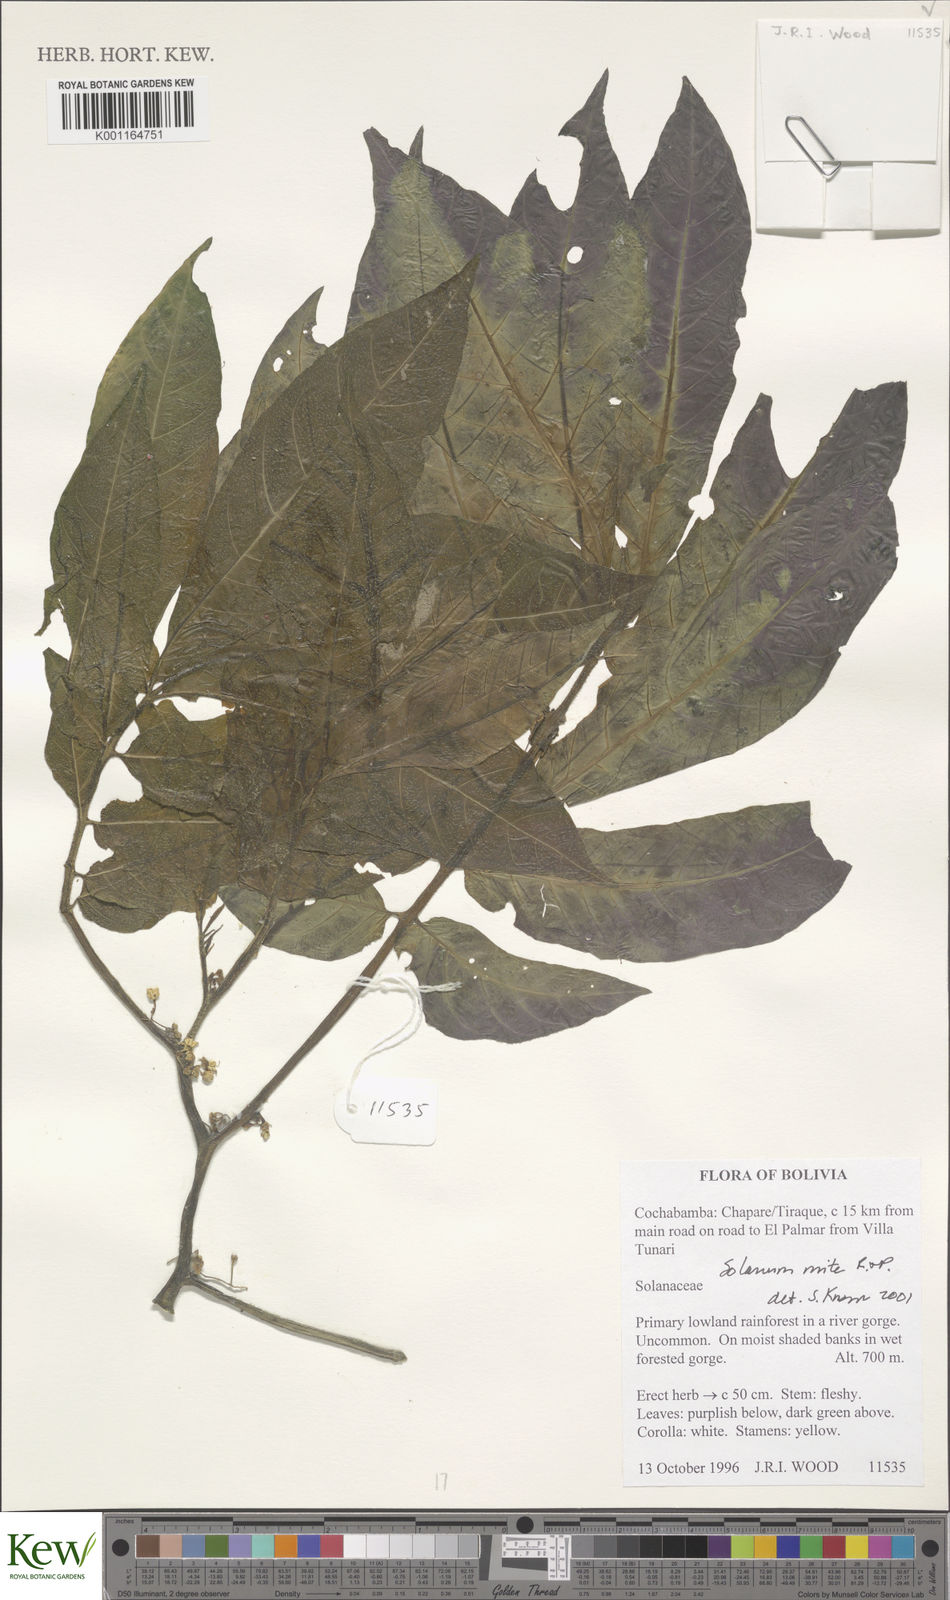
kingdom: Plantae
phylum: Tracheophyta
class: Magnoliopsida
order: Solanales
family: Solanaceae
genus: Solanum
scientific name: Solanum mite
